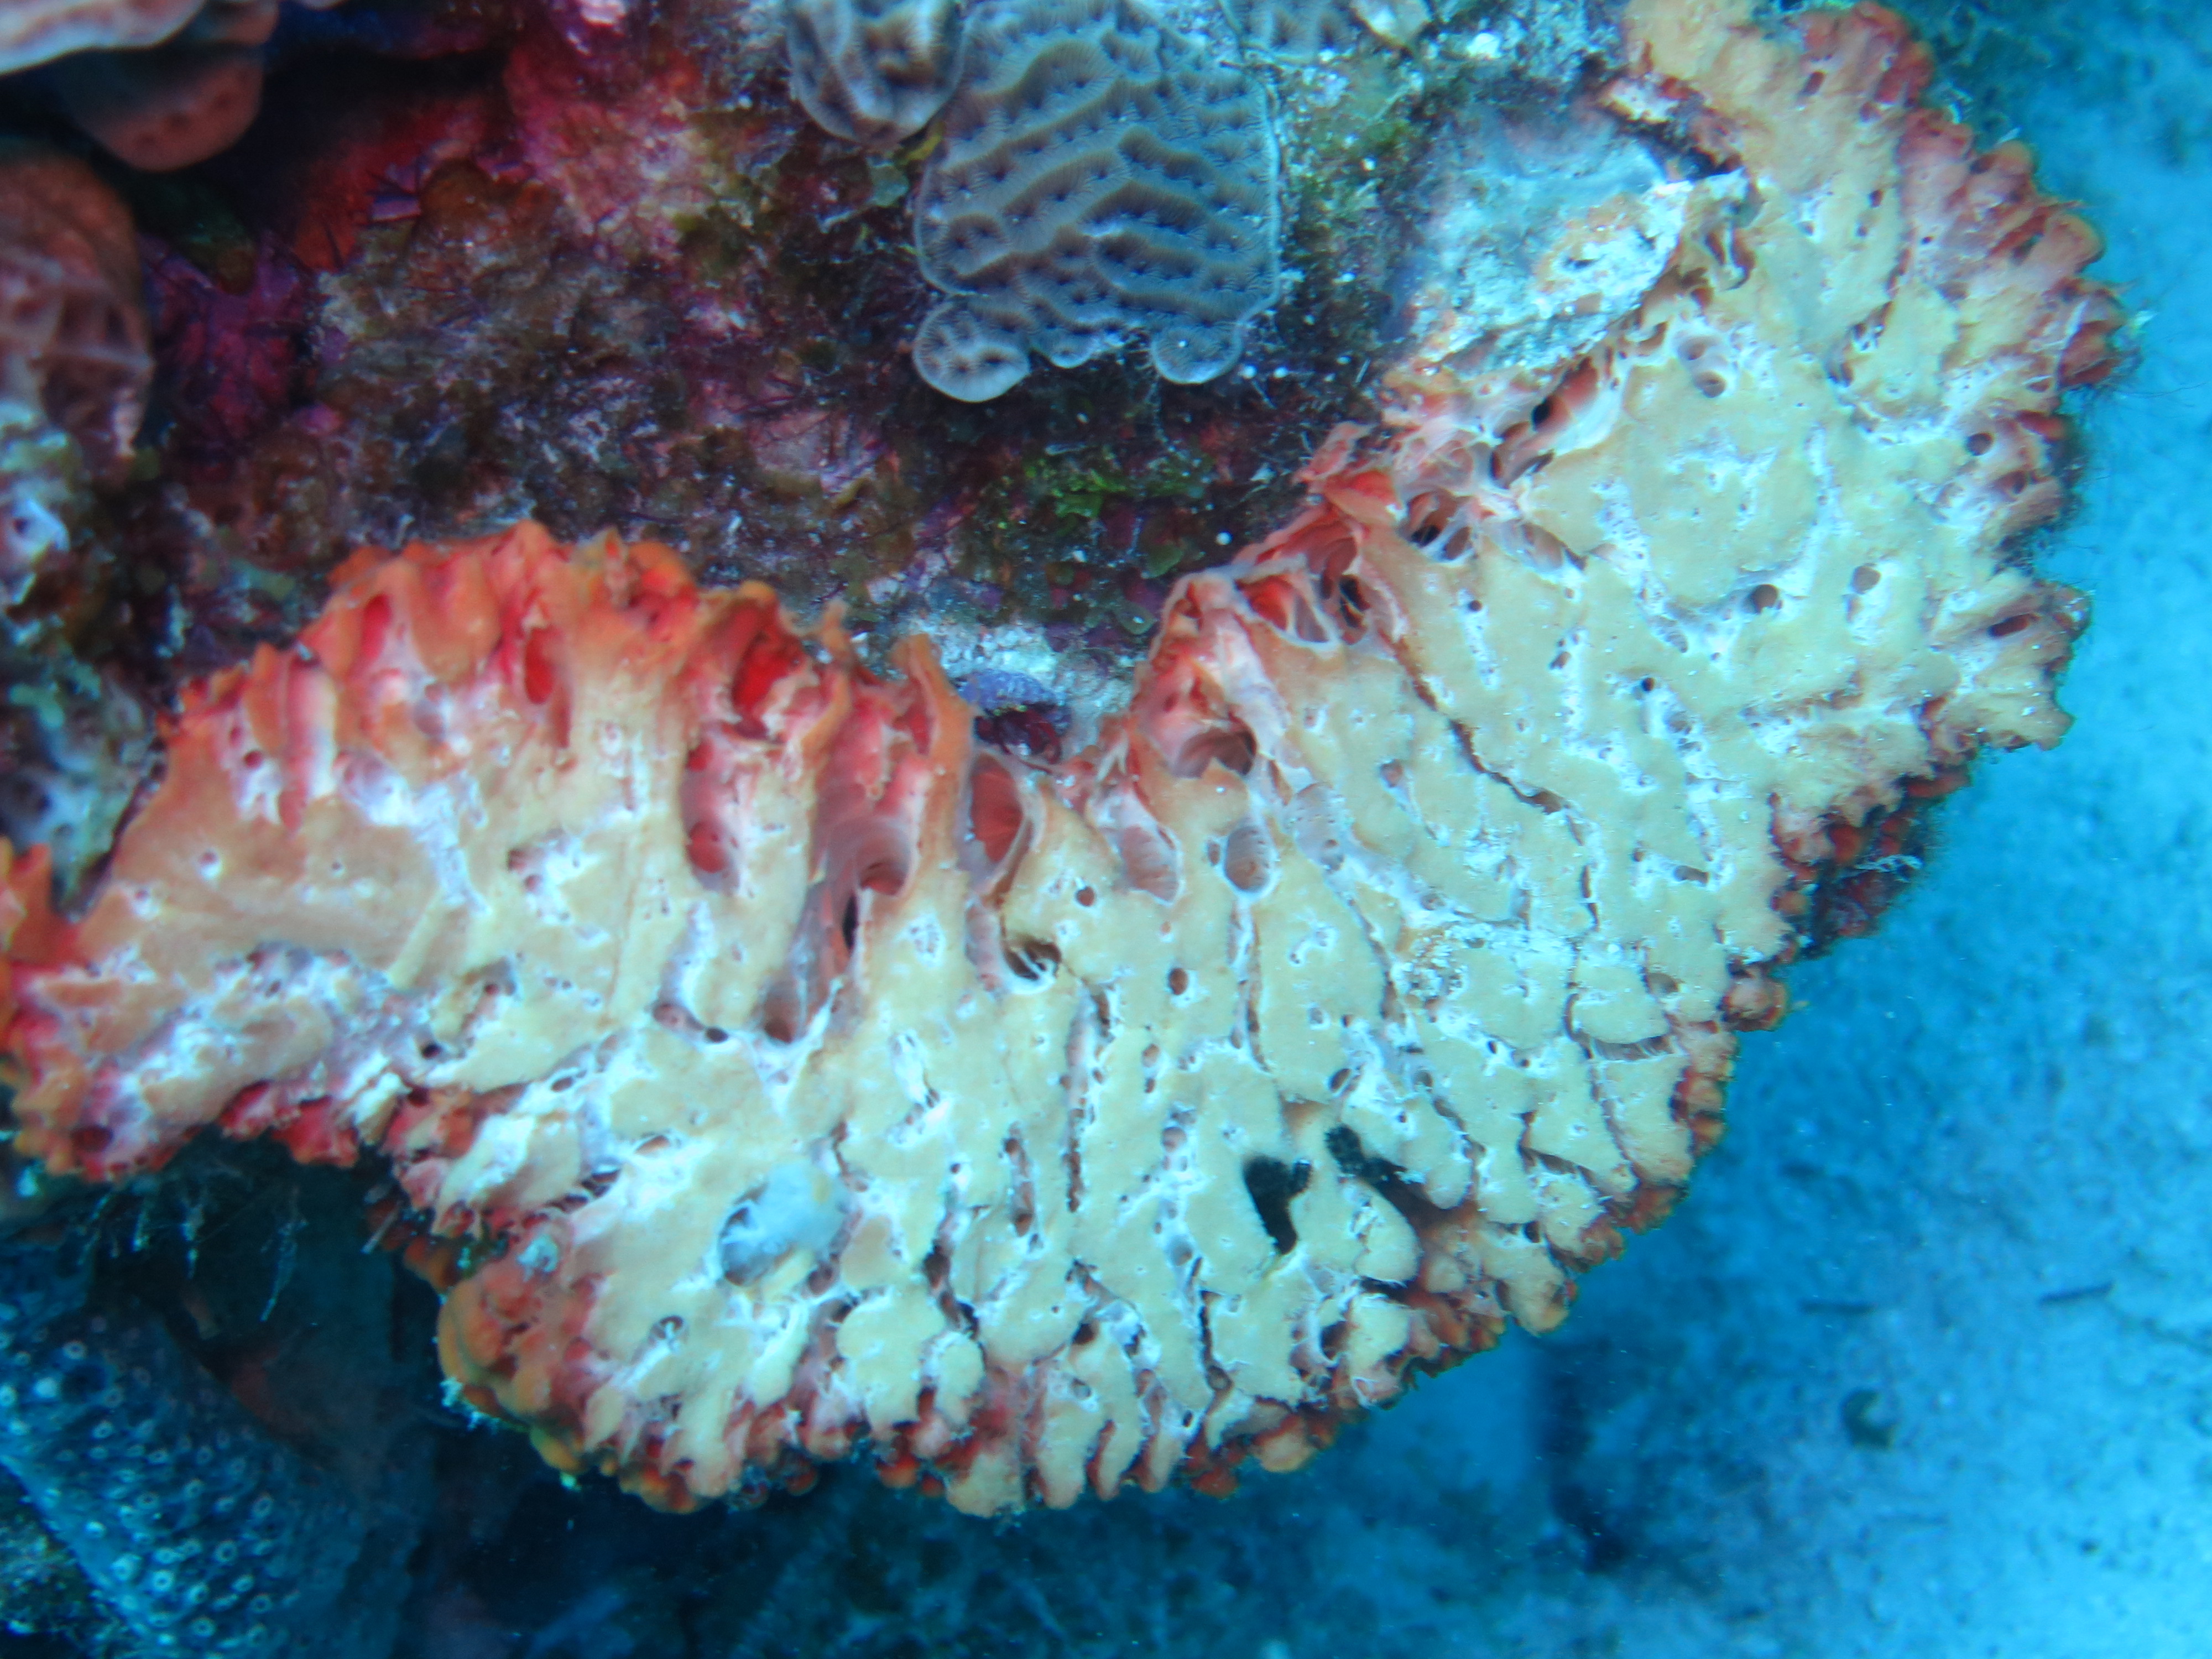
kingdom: Animalia
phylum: Porifera
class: Demospongiae
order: Agelasida
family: Agelasidae
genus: Agelas
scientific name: Agelas
